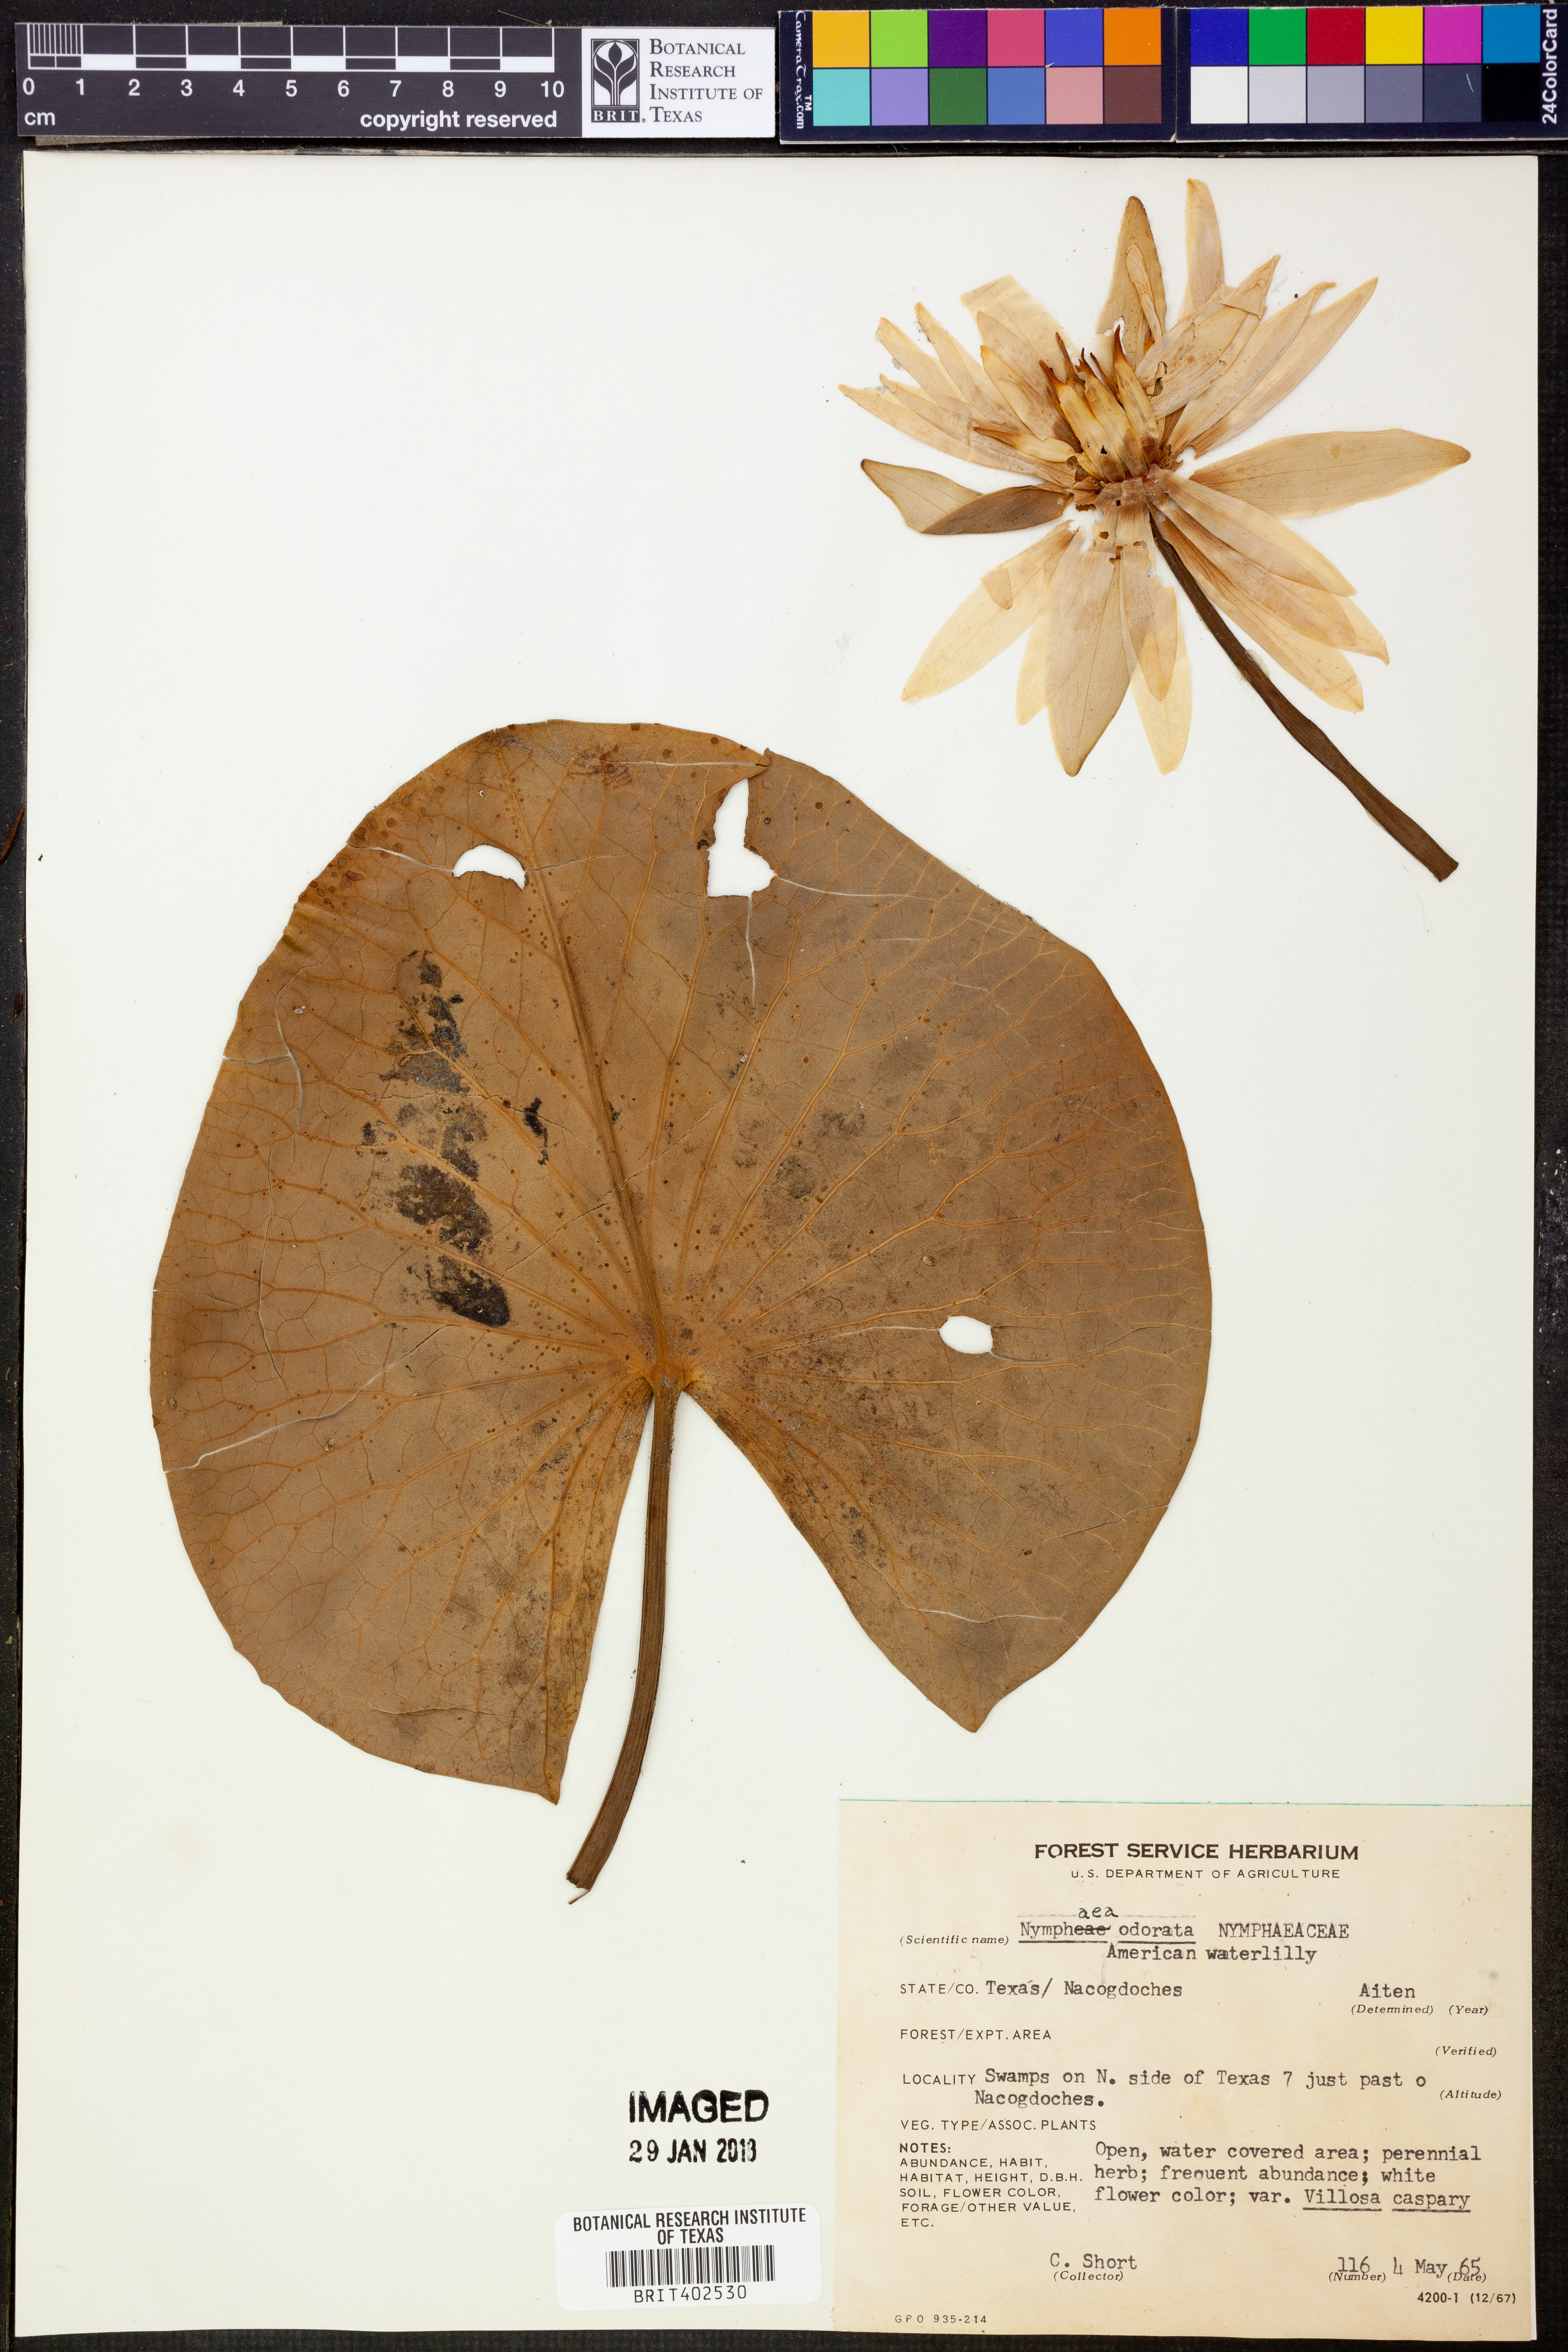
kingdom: Plantae
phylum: Tracheophyta
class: Magnoliopsida
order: Nymphaeales
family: Nymphaeaceae
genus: Nymphaea
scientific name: Nymphaea odorata
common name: Fragrant water-lily
